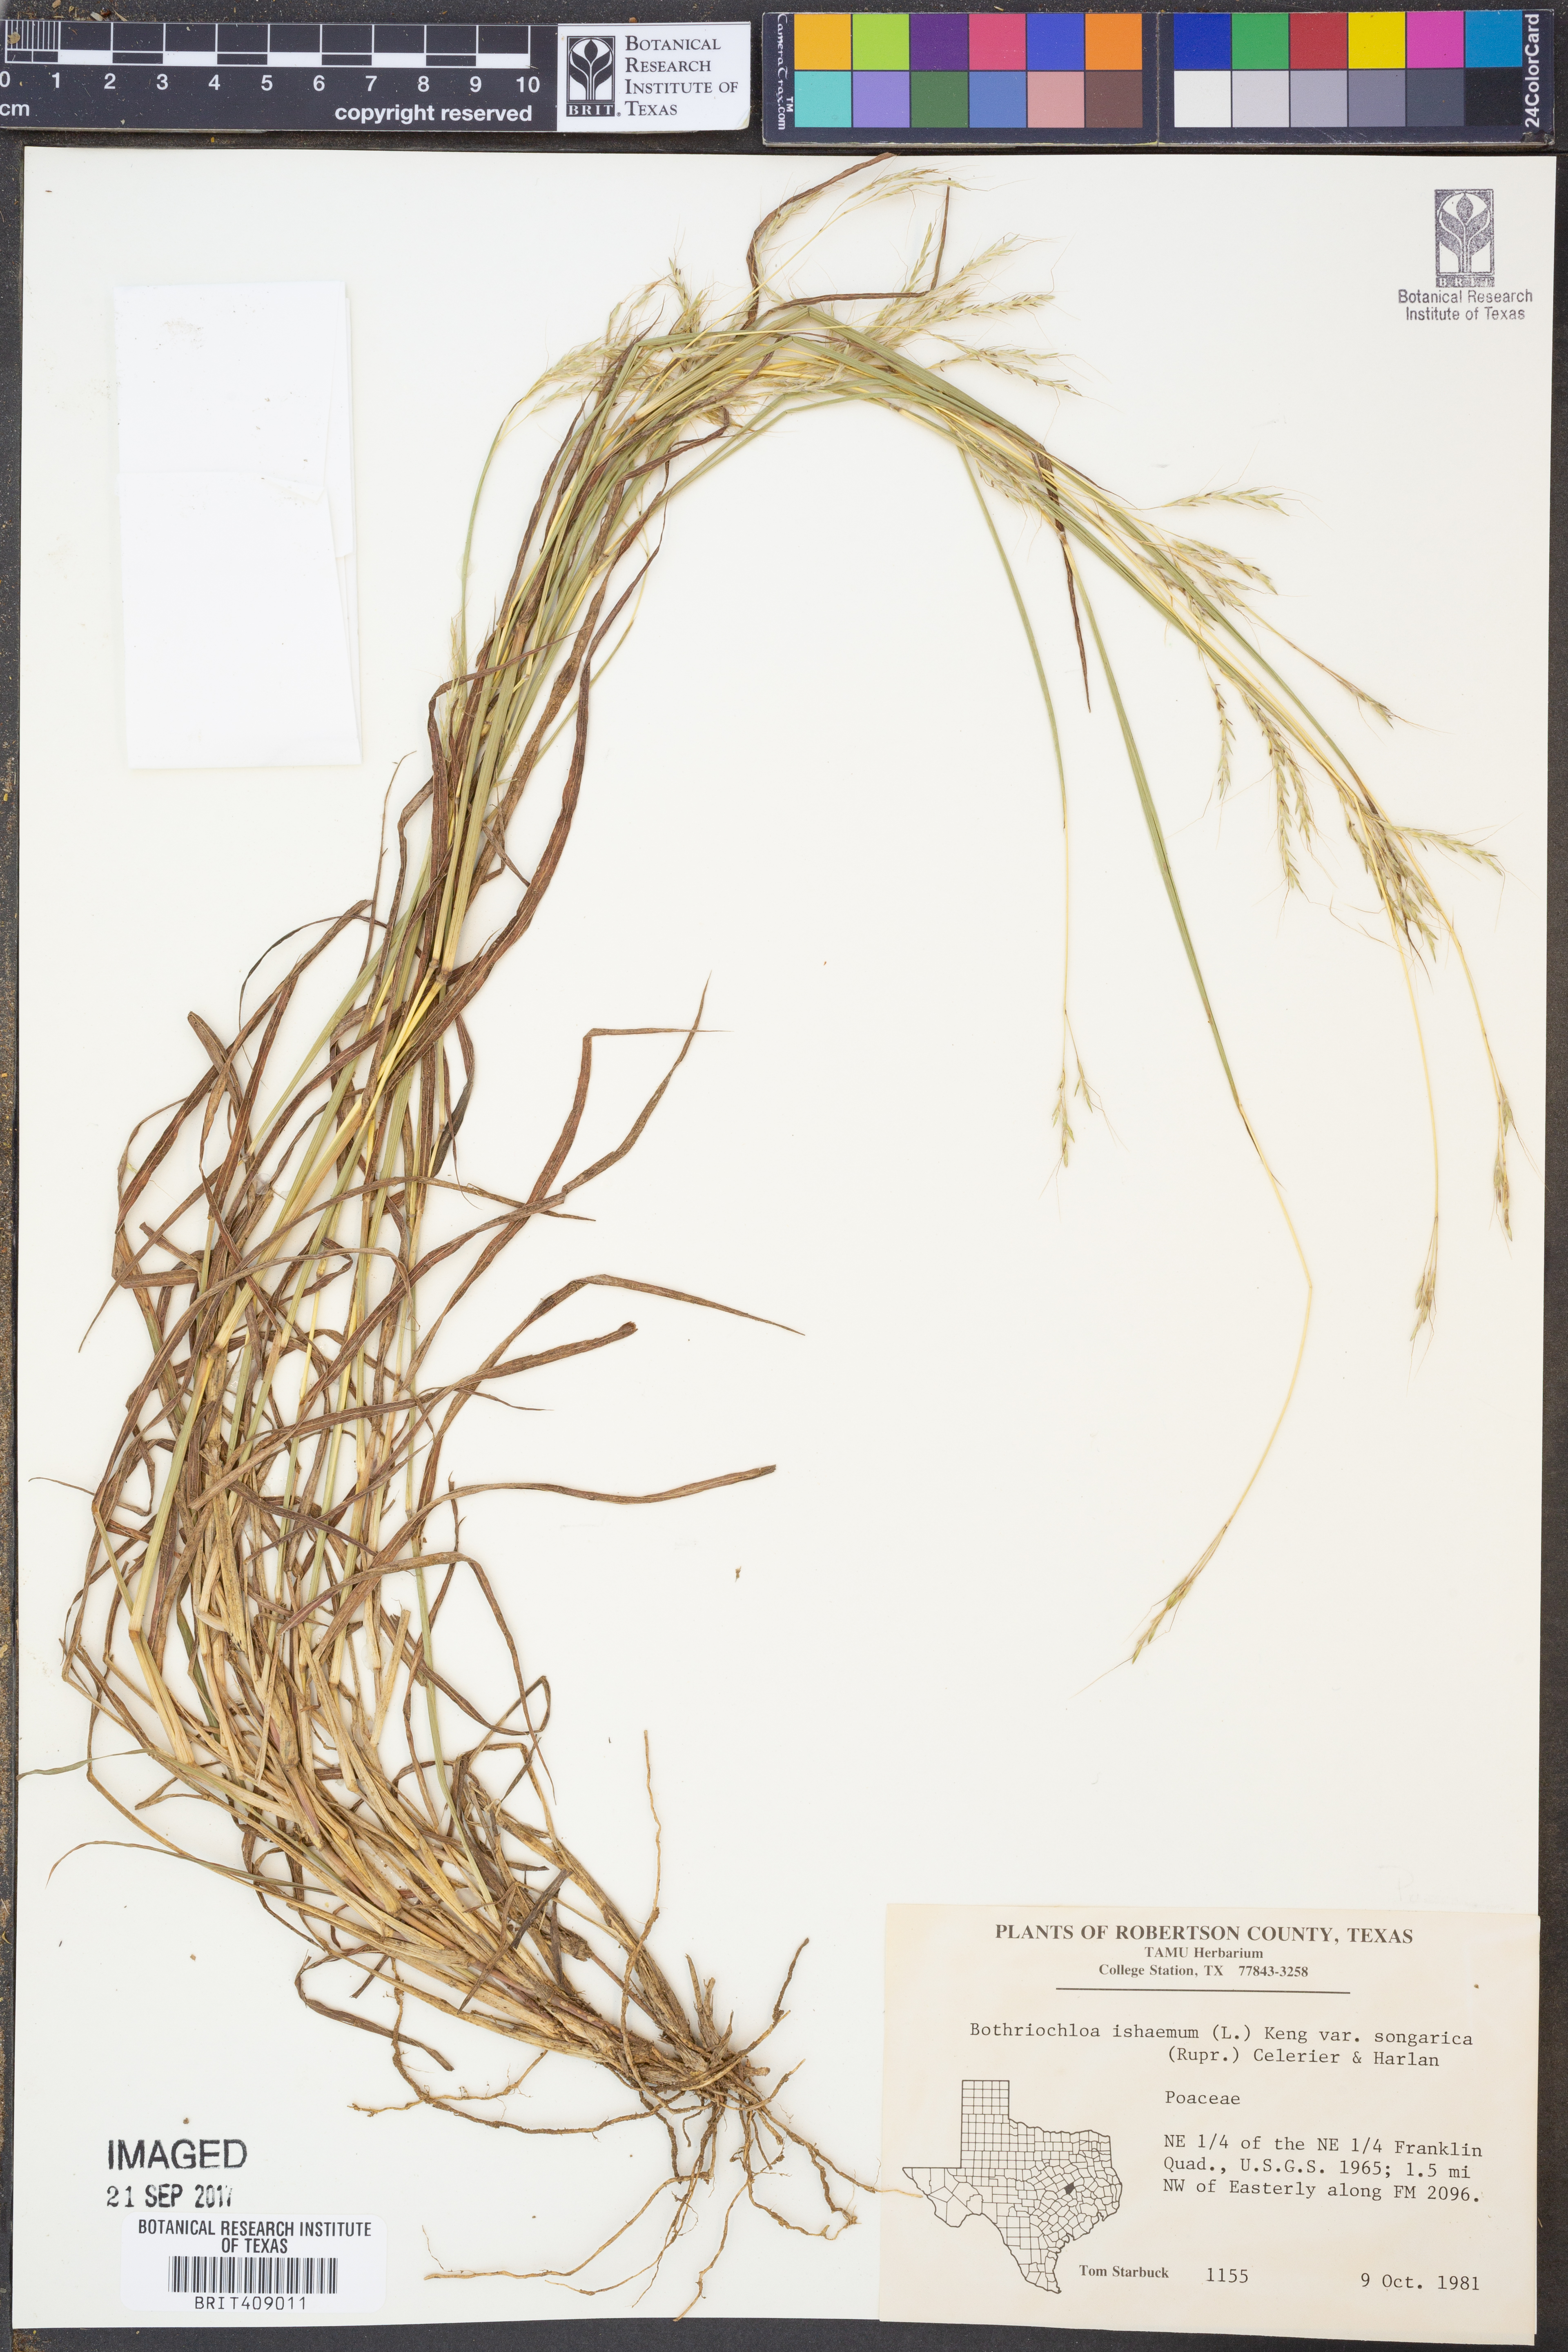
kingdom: Plantae
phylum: Tracheophyta
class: Liliopsida
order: Poales
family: Poaceae
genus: Bothriochloa
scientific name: Bothriochloa ischaemum
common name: Yellow bluestem
